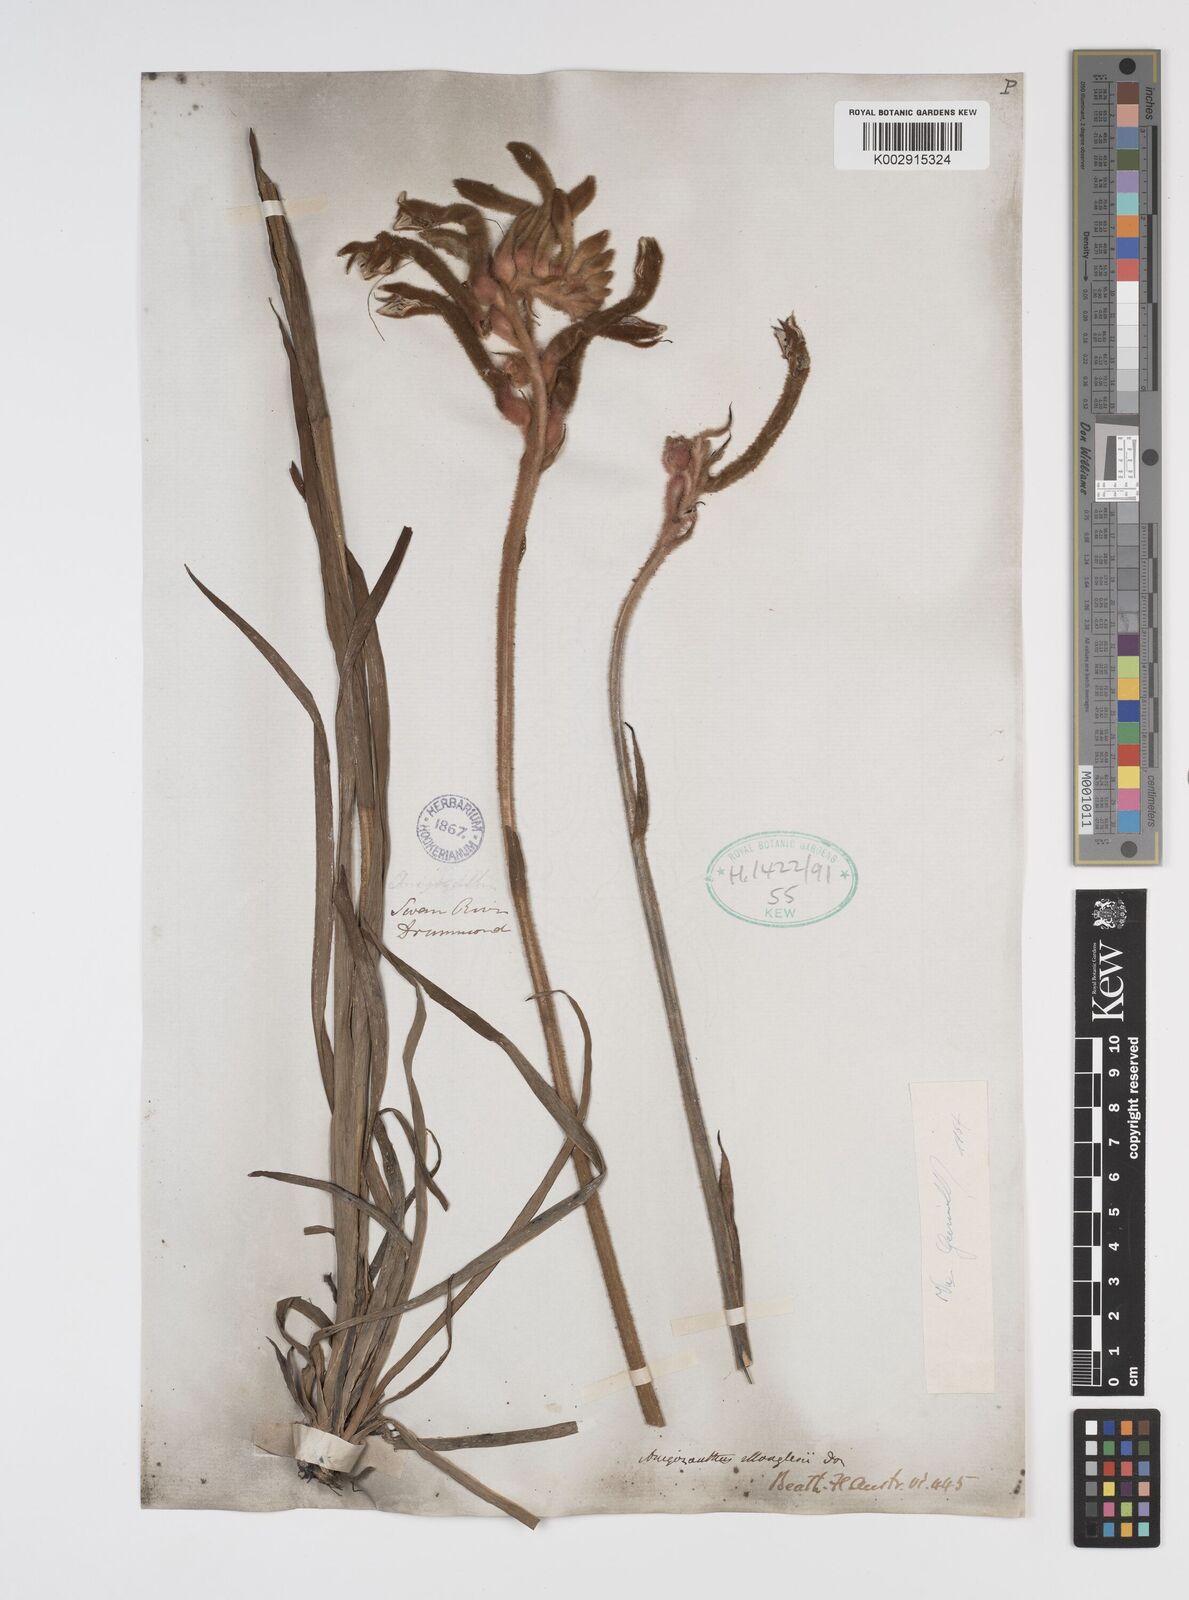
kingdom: Plantae
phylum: Tracheophyta
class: Liliopsida
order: Commelinales
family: Haemodoraceae
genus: Anigozanthos
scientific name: Anigozanthos manglesii
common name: Mangles's kangaroo-paw
